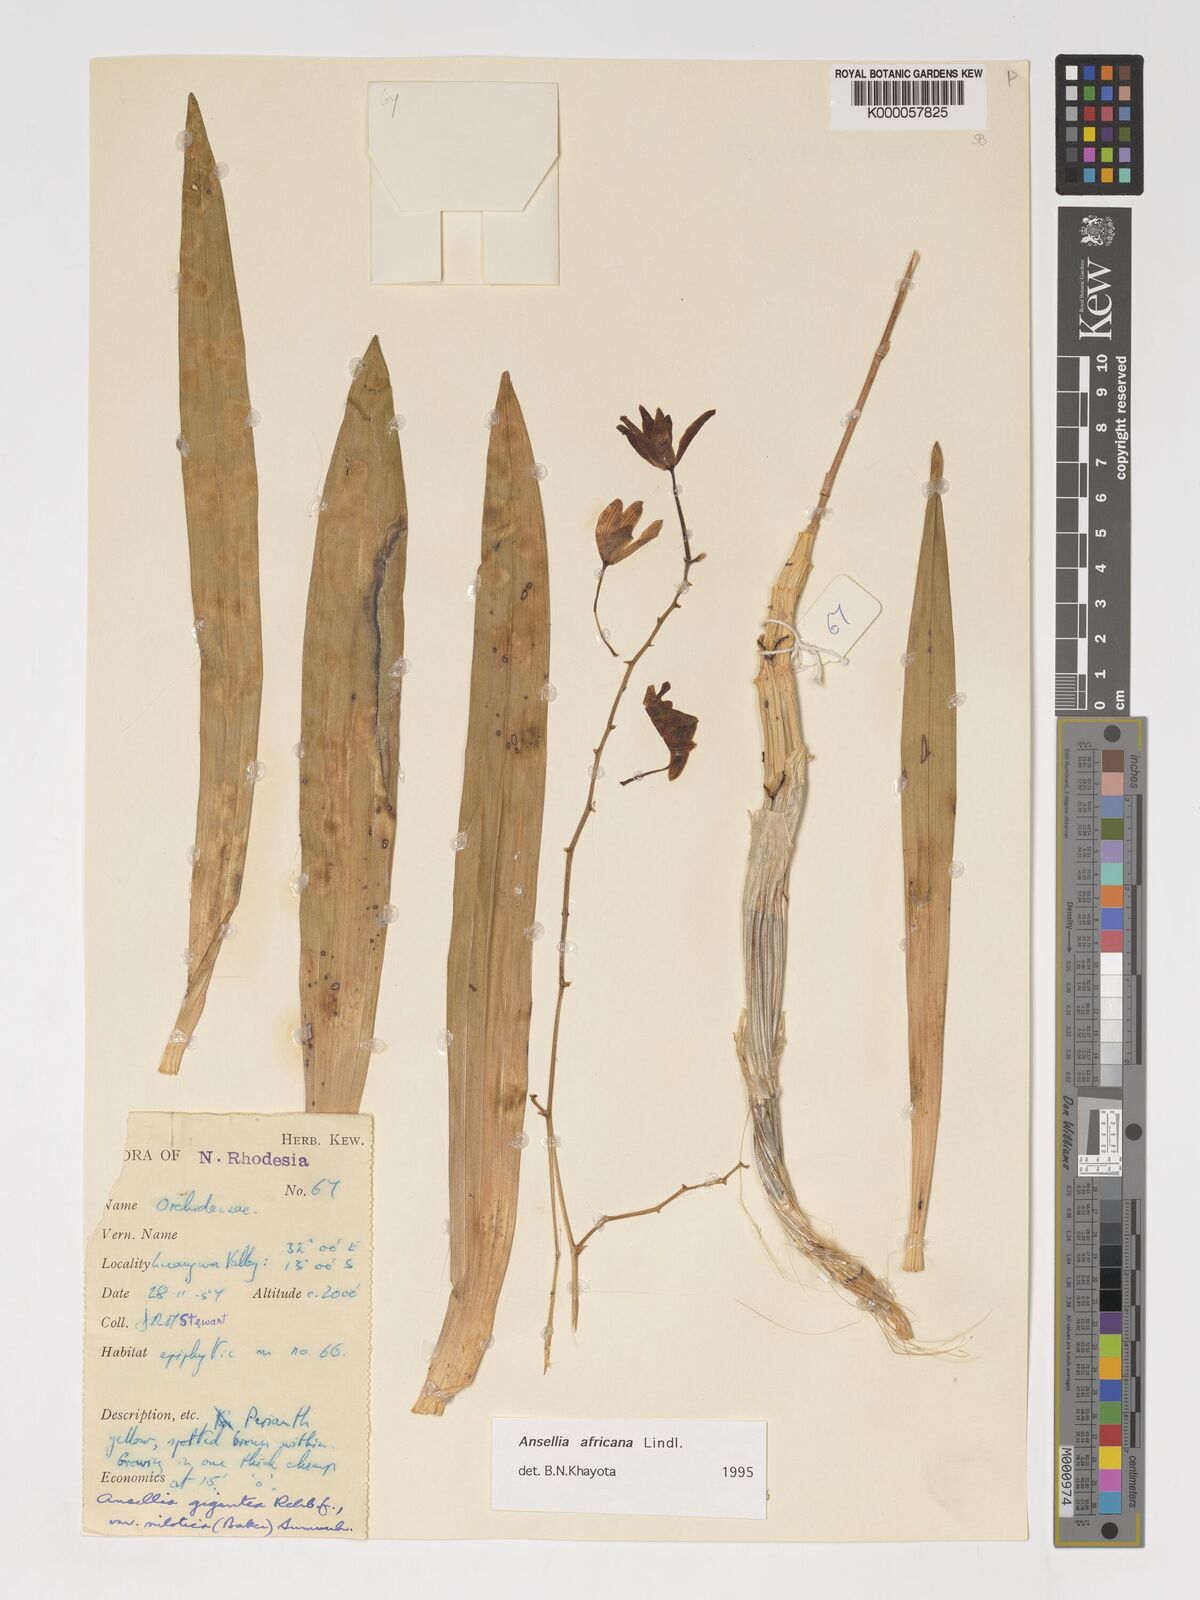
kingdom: Plantae
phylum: Tracheophyta
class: Liliopsida
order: Asparagales
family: Orchidaceae
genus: Ansellia
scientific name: Ansellia africana
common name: African ansellia
